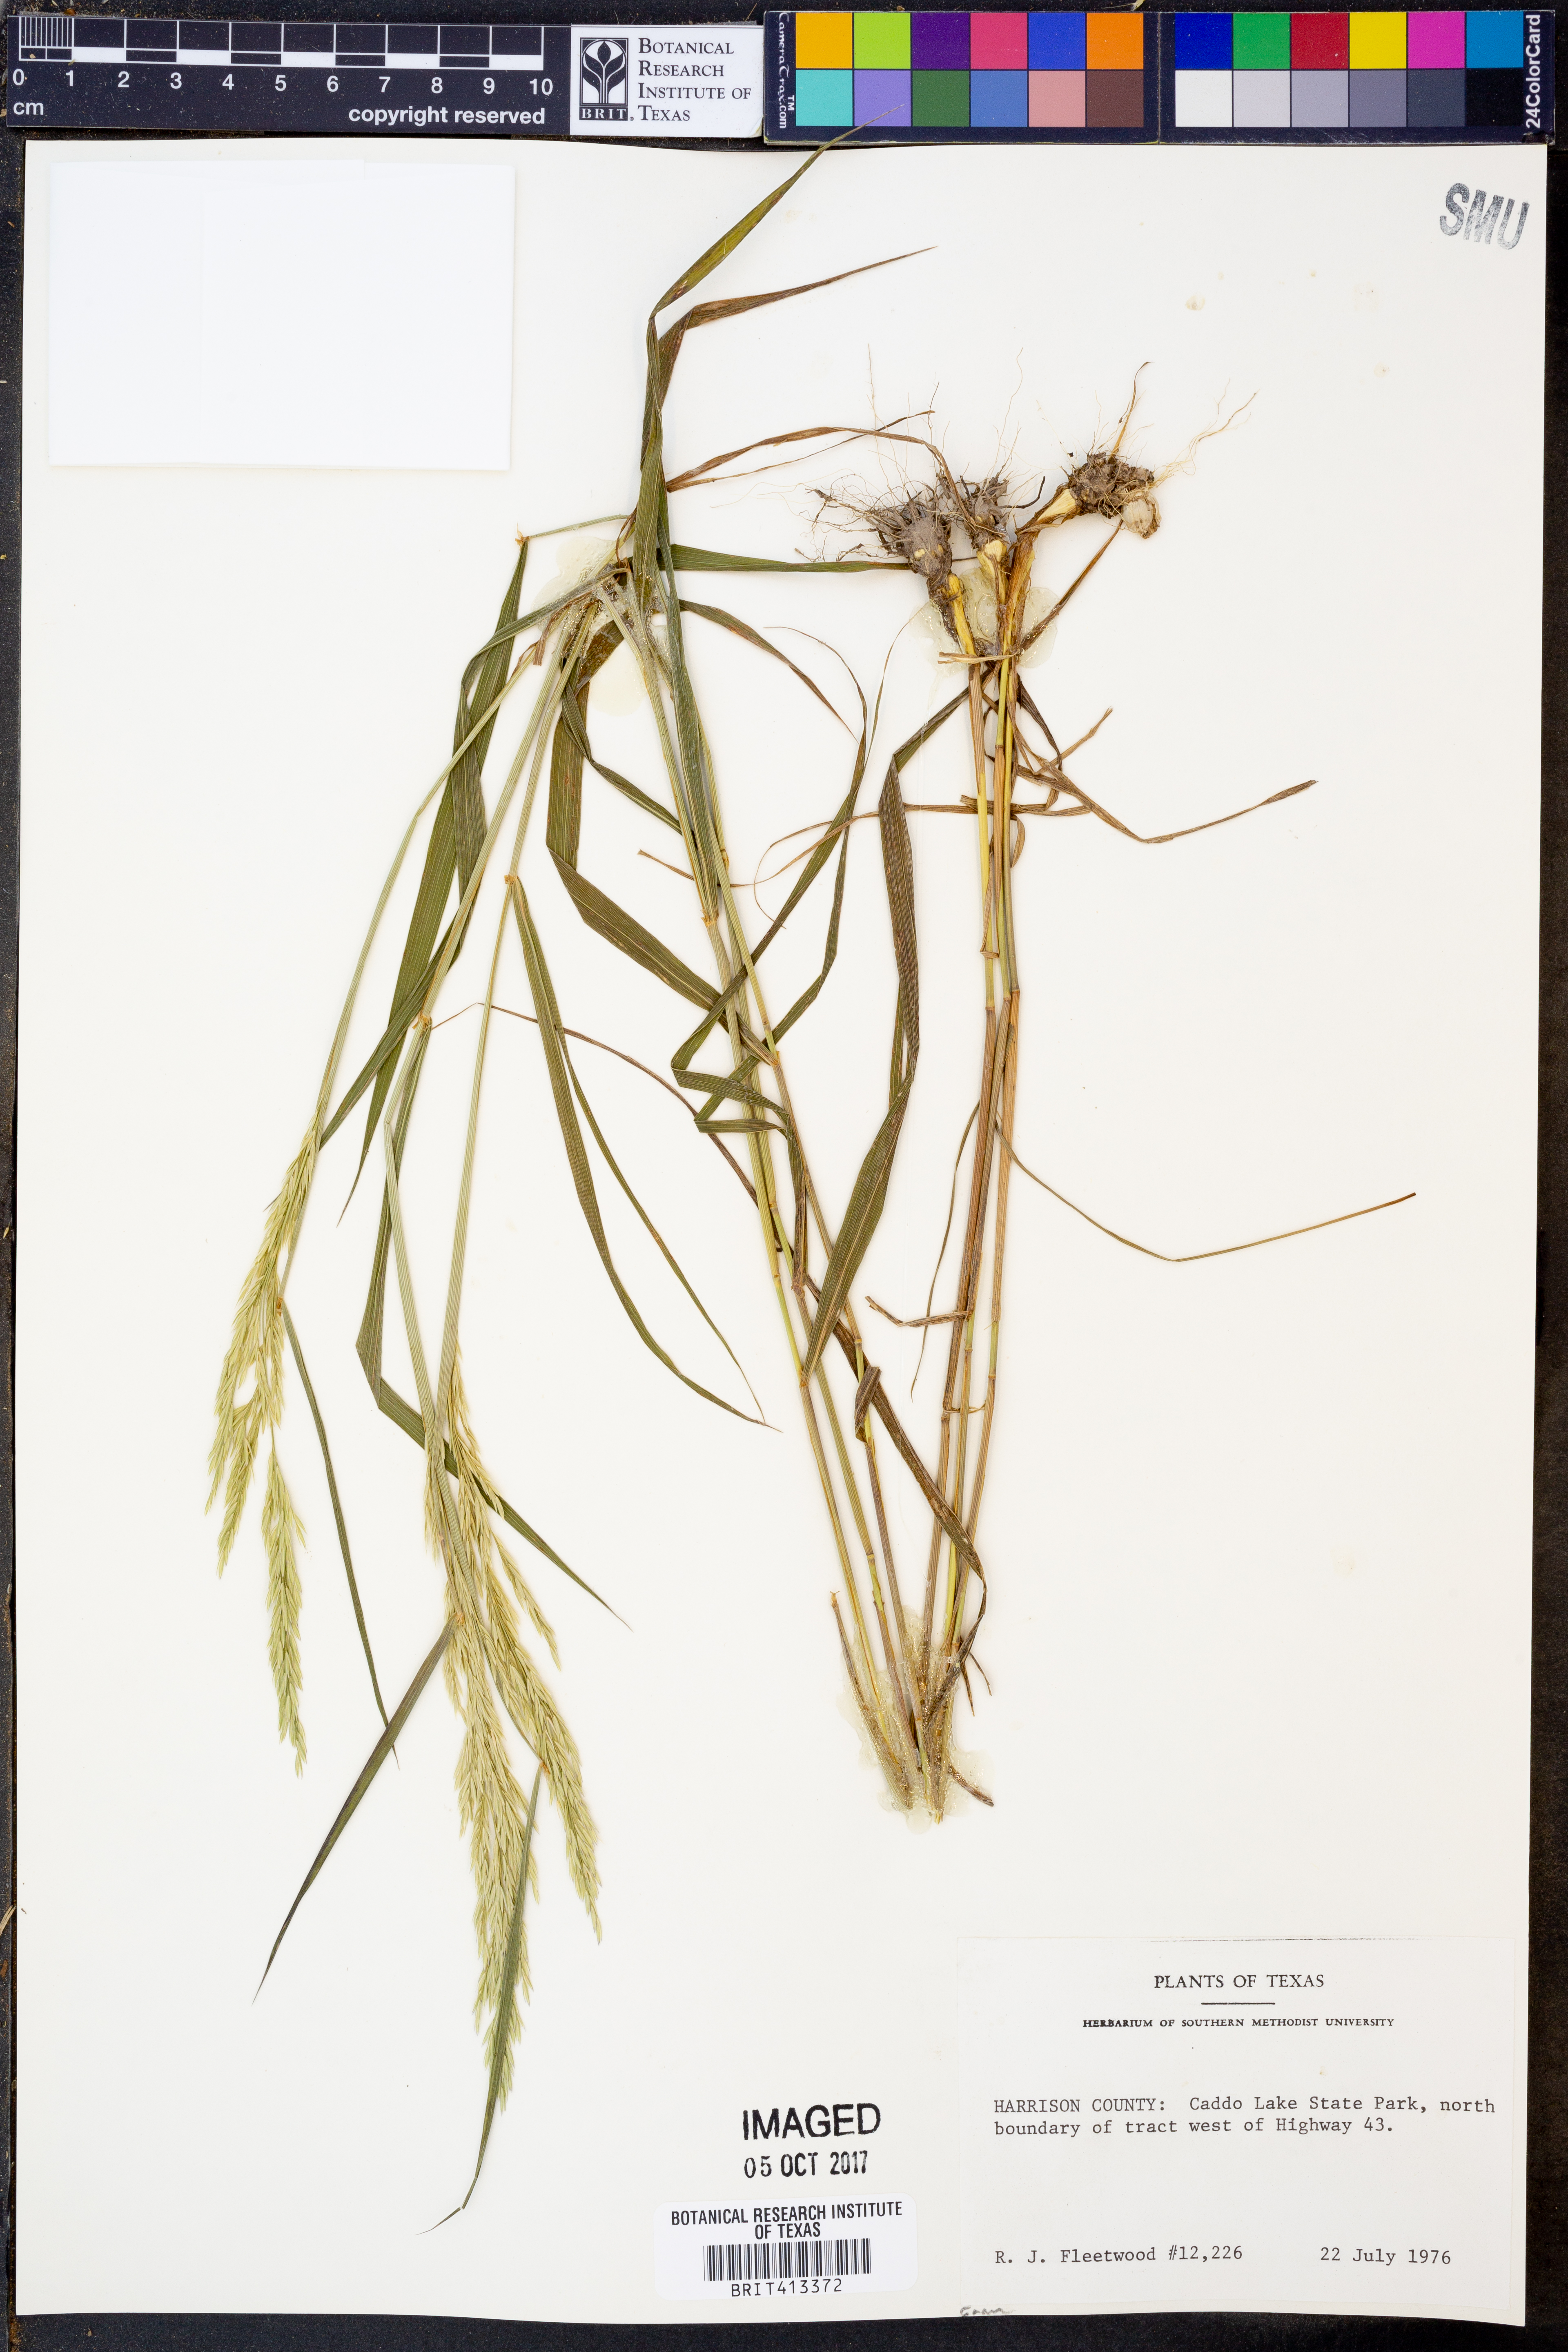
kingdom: Plantae
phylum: Tracheophyta
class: Liliopsida
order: Poales
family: Poaceae
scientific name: Poaceae
